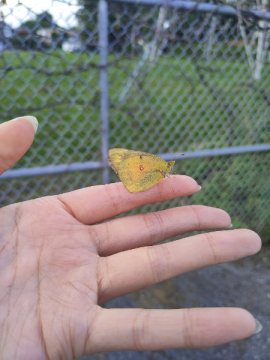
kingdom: Animalia
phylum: Arthropoda
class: Insecta
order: Lepidoptera
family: Pieridae
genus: Colias
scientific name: Colias eurytheme
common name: Orange Sulphur
